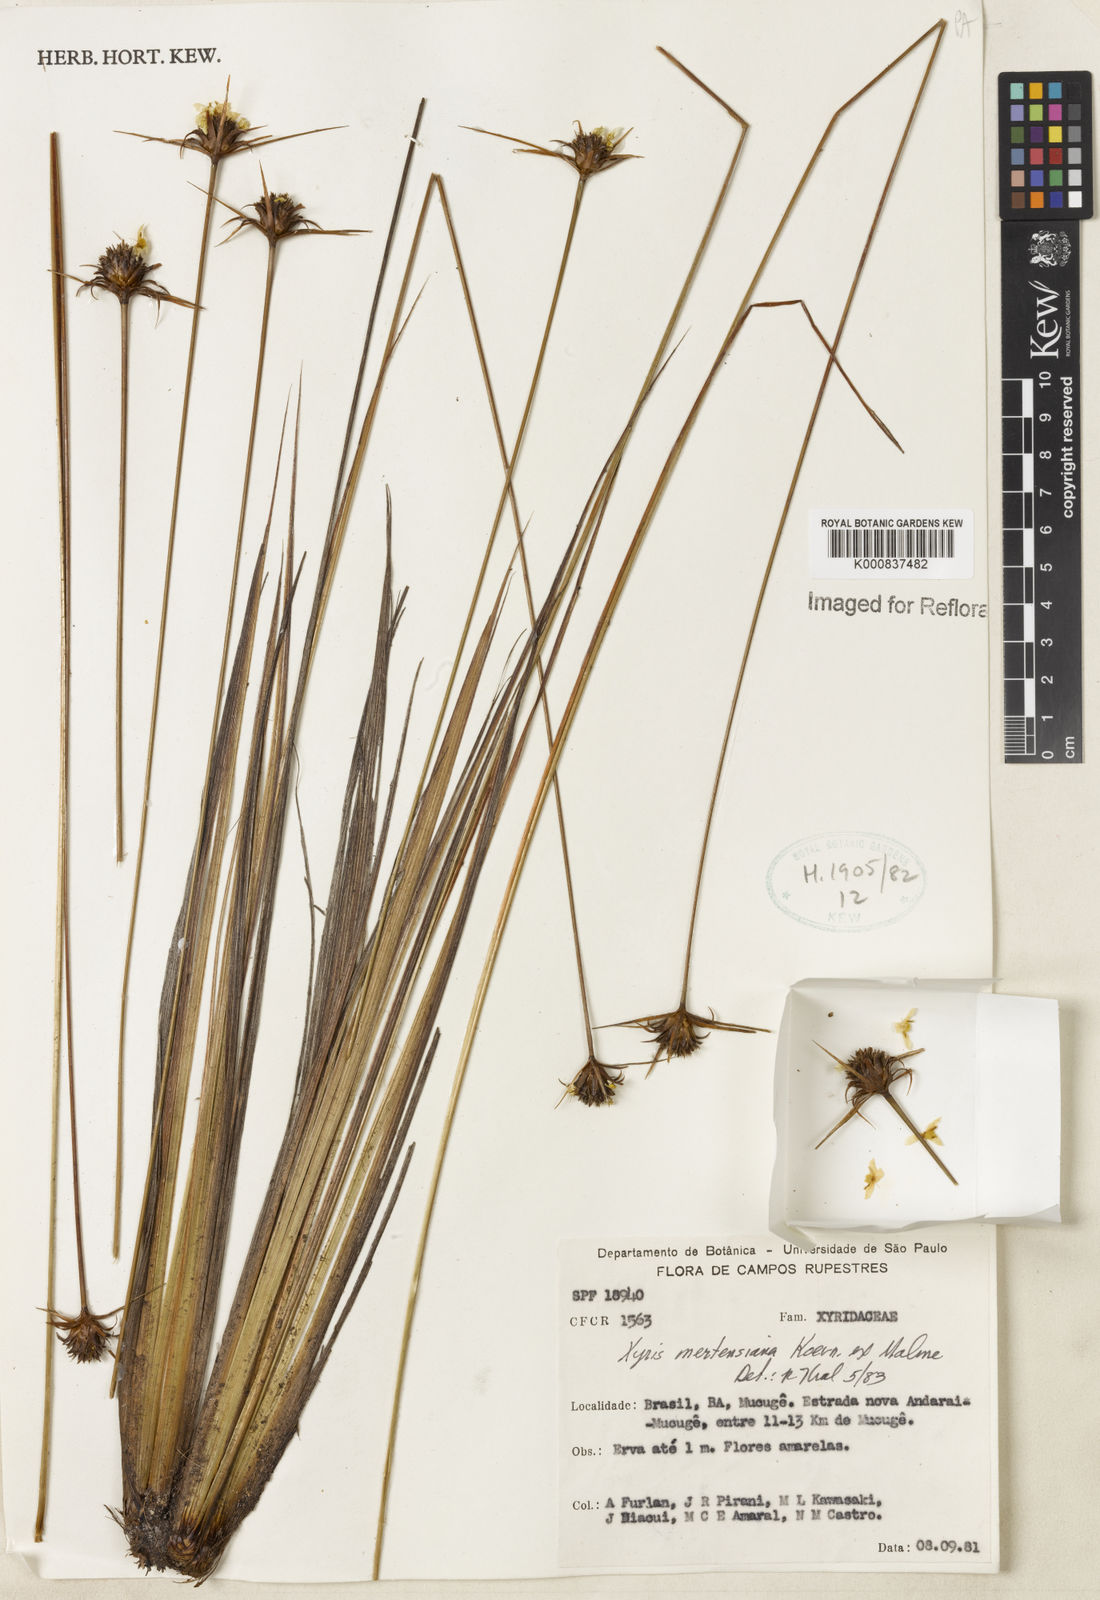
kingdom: Plantae
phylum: Tracheophyta
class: Liliopsida
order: Poales
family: Xyridaceae
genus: Xyris
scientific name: Xyris
